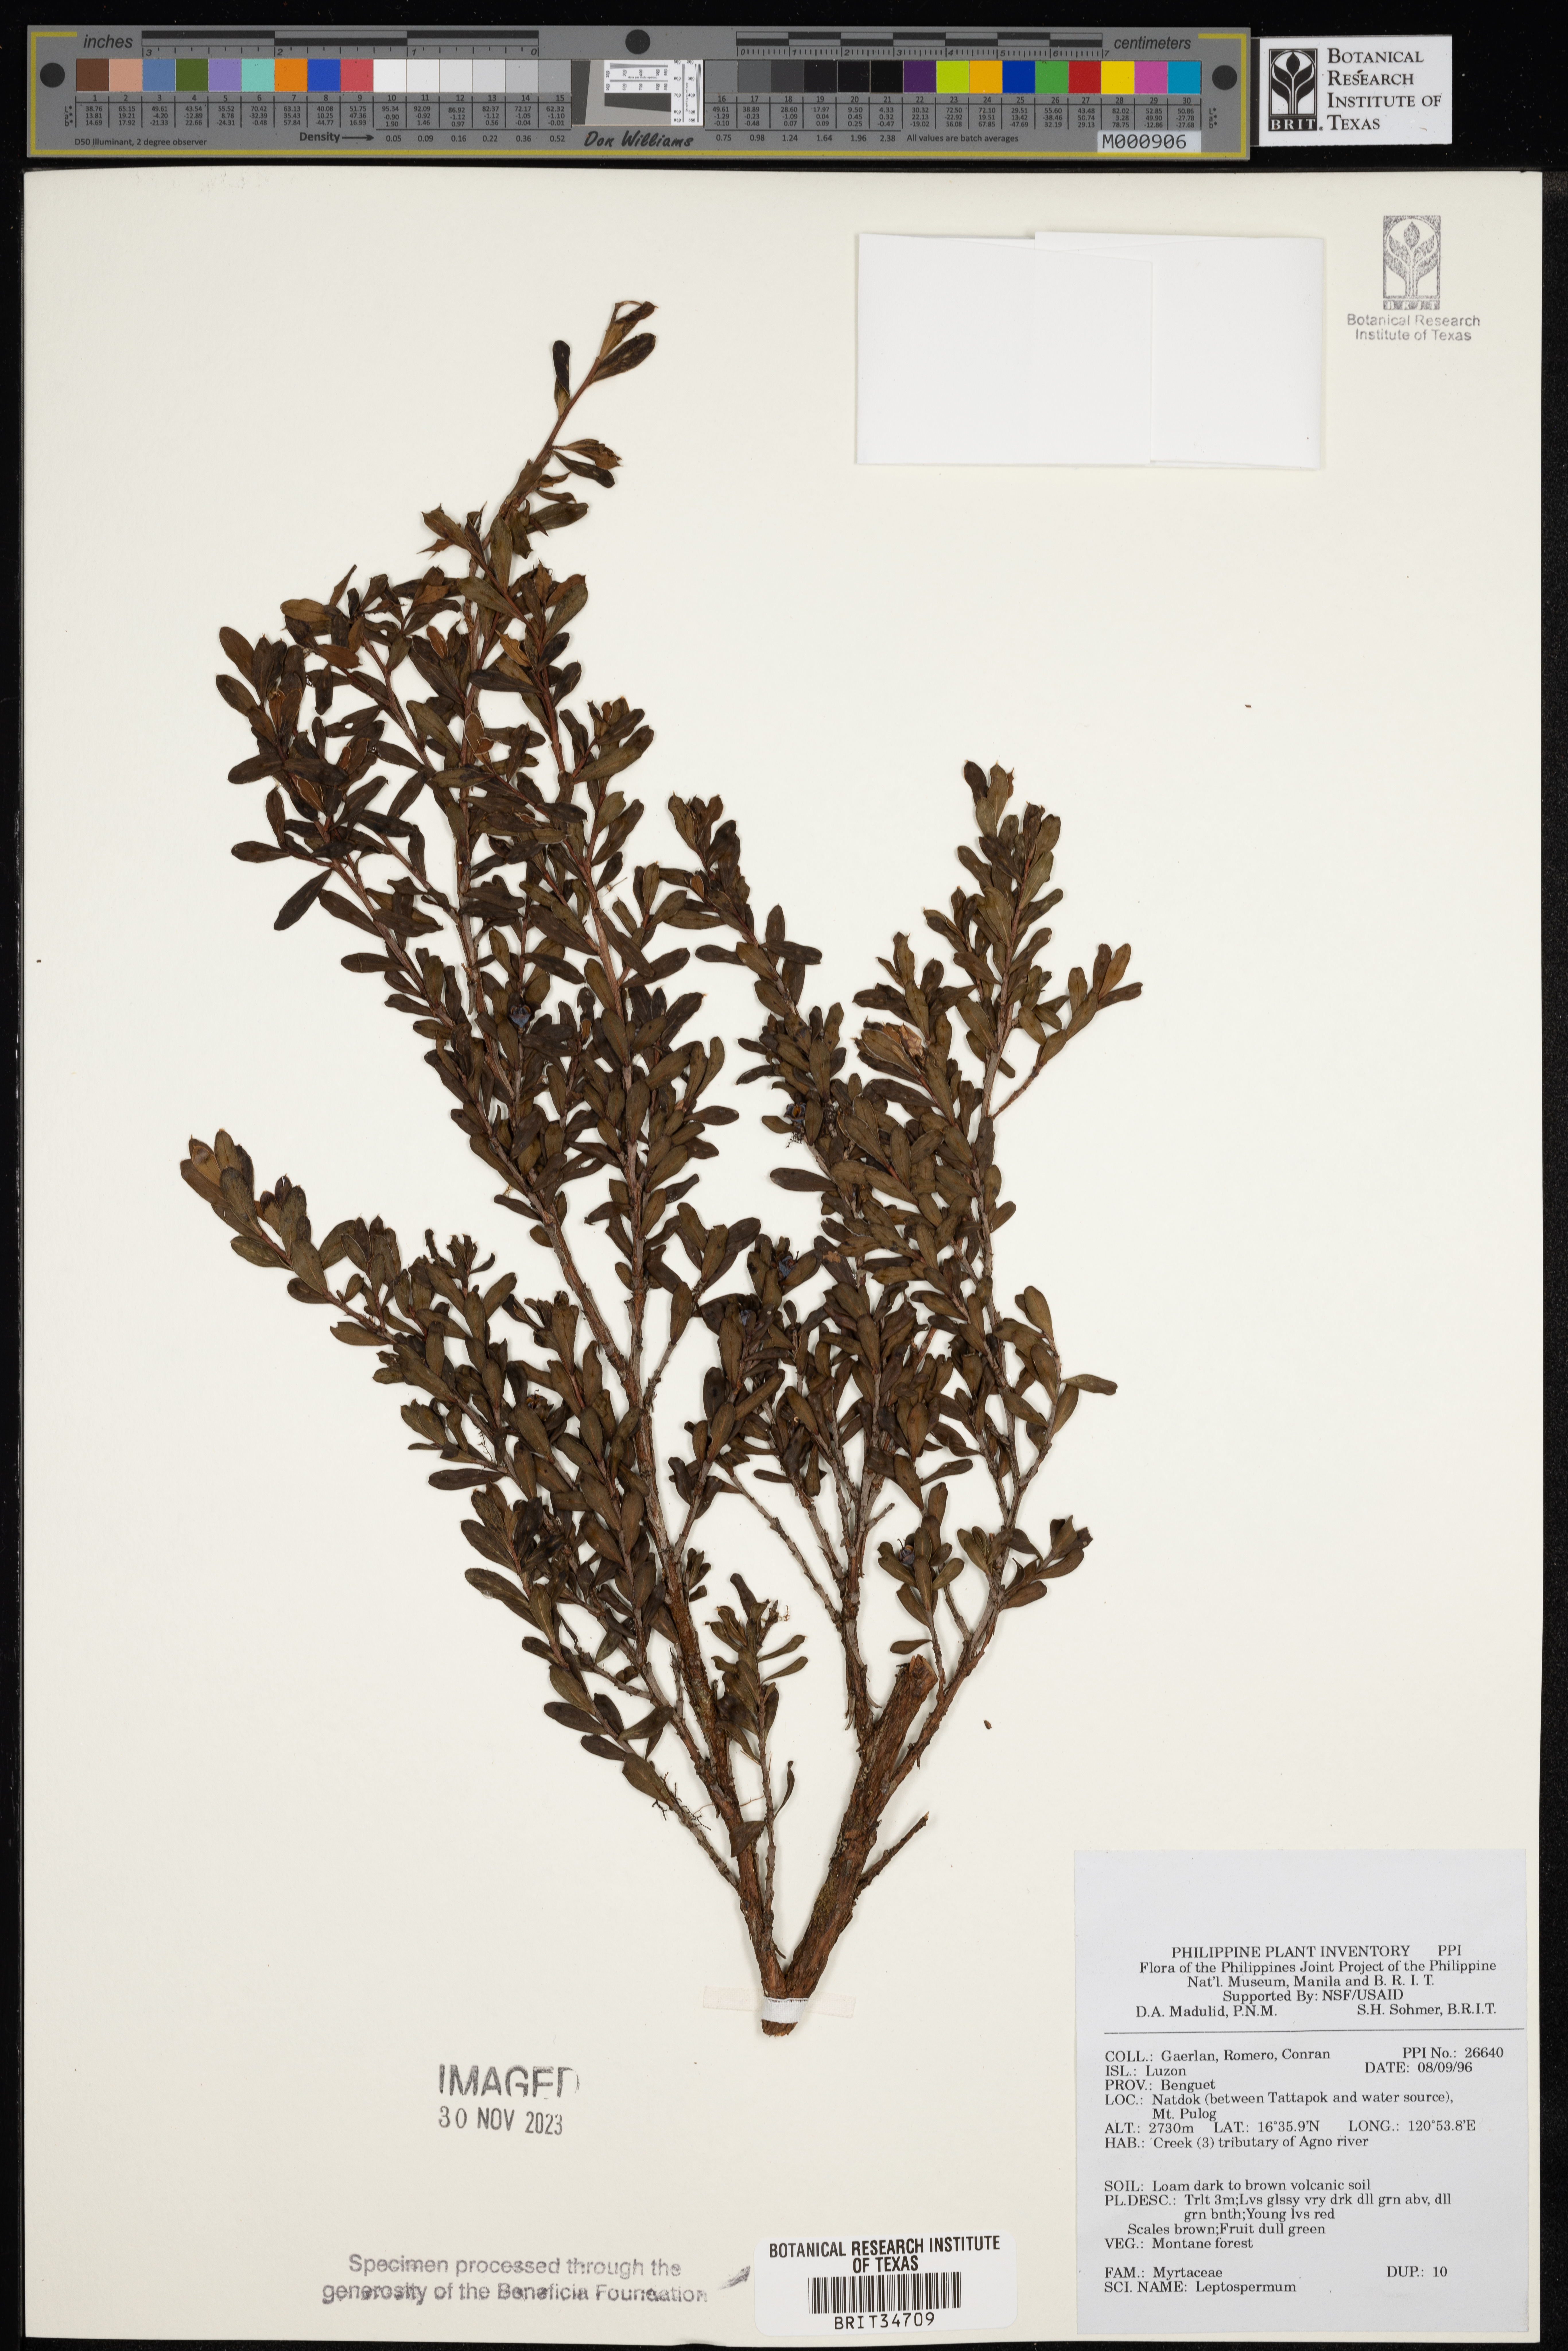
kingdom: Plantae
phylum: Tracheophyta
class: Magnoliopsida
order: Myrtales
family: Myrtaceae
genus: Leptospermum
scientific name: Leptospermum
